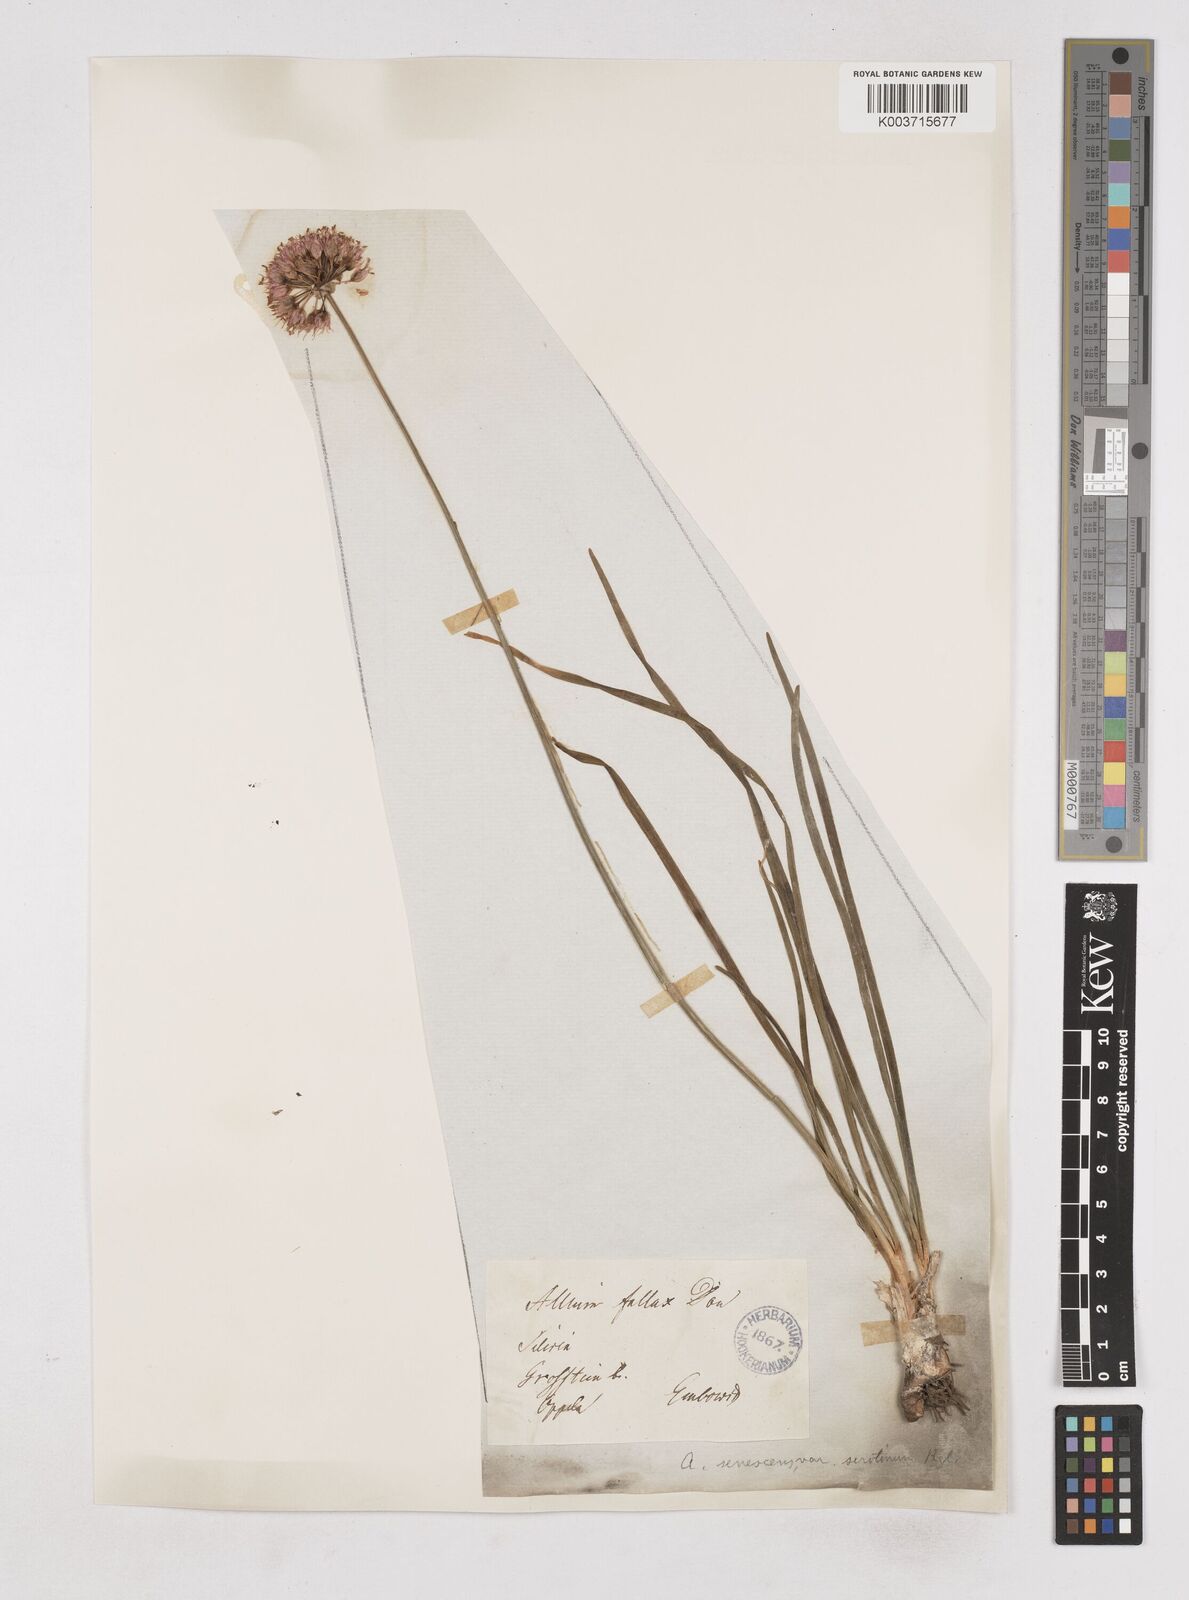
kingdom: Plantae
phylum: Tracheophyta
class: Liliopsida
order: Asparagales
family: Amaryllidaceae
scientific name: Amaryllidaceae
